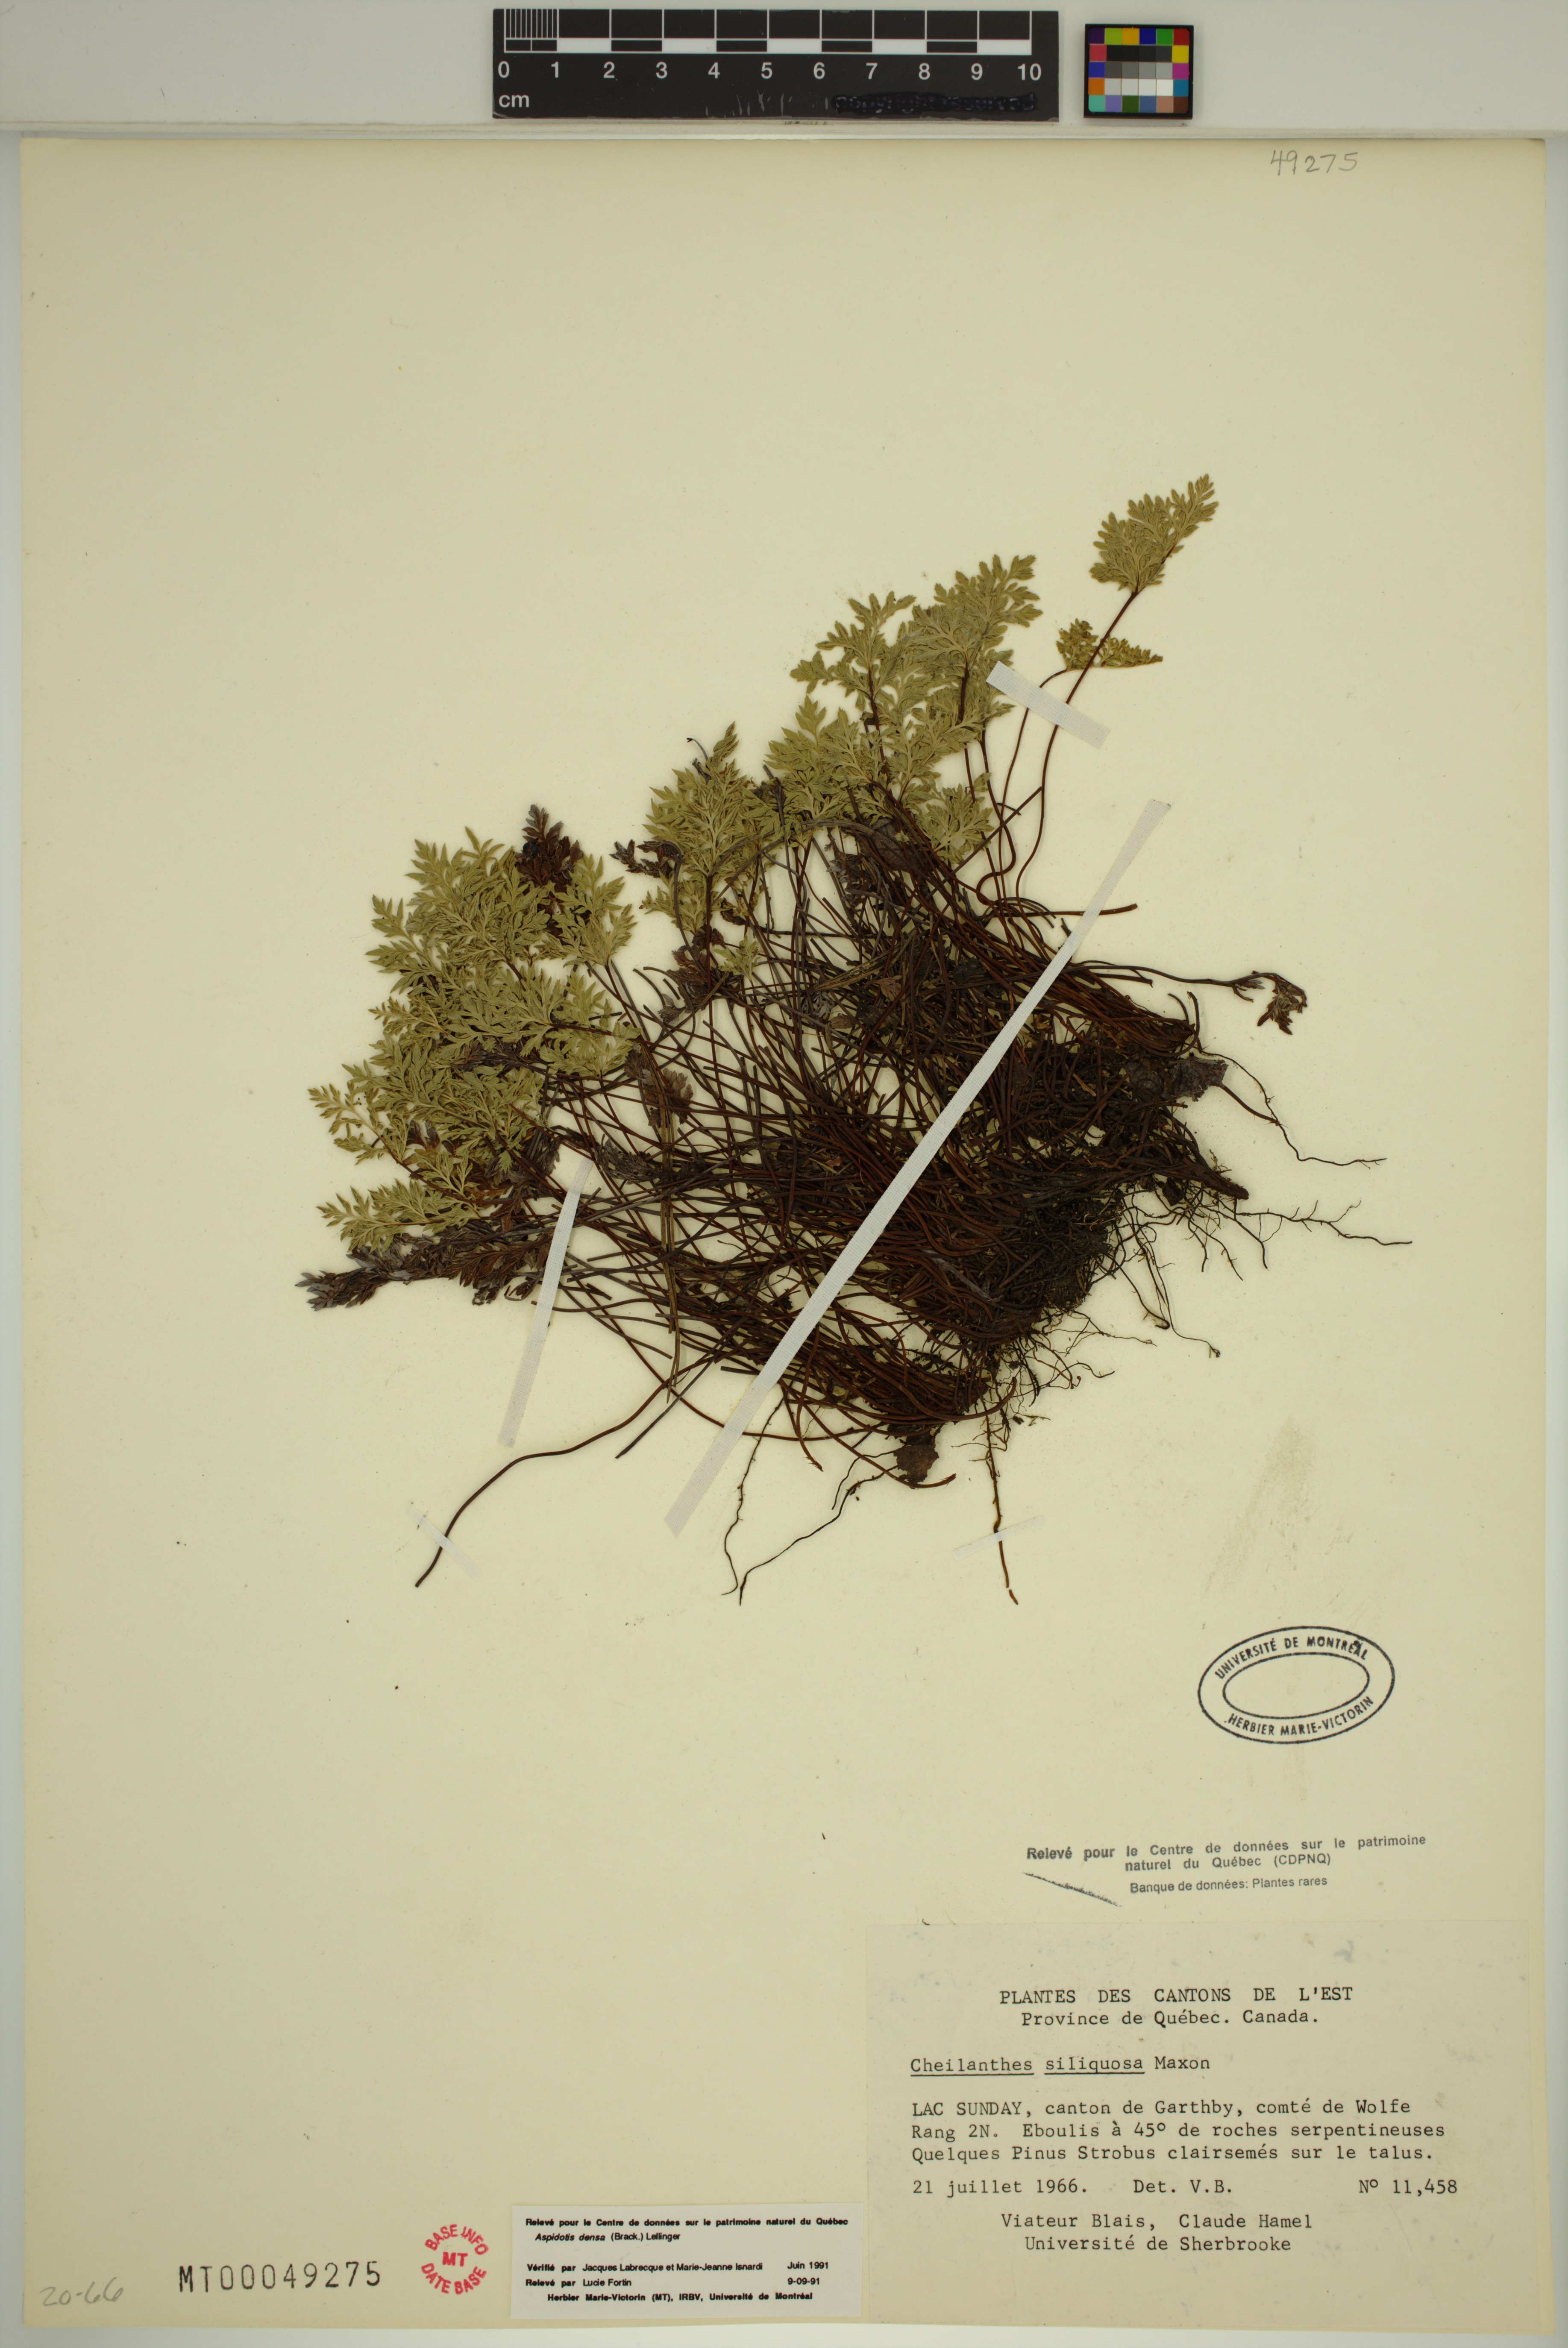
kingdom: Plantae
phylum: Tracheophyta
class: Polypodiopsida
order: Polypodiales
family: Pteridaceae
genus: Aspidotis
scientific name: Aspidotis densa
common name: Indian's dream
